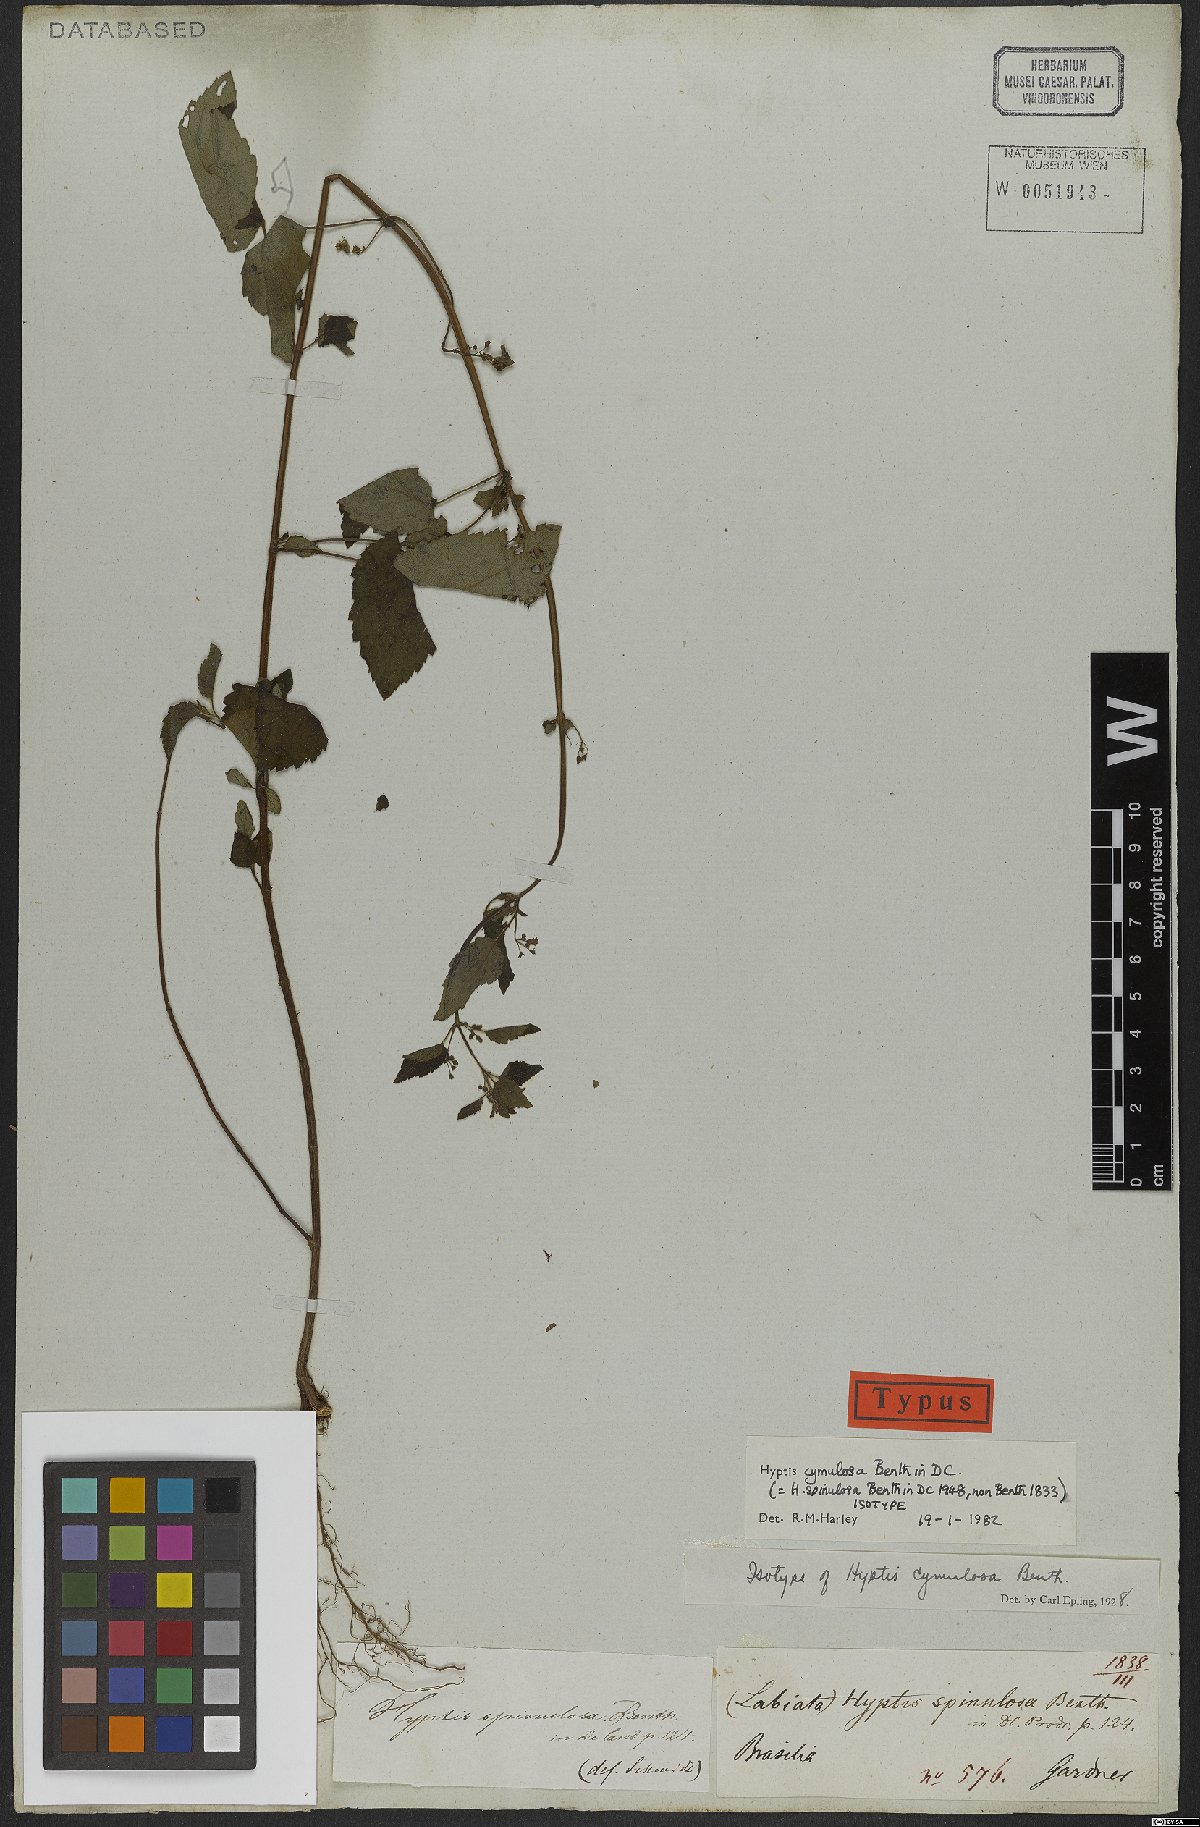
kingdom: Plantae
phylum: Tracheophyta
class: Magnoliopsida
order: Lamiales
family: Lamiaceae
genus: Hyptis
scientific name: Hyptis cymulosa
